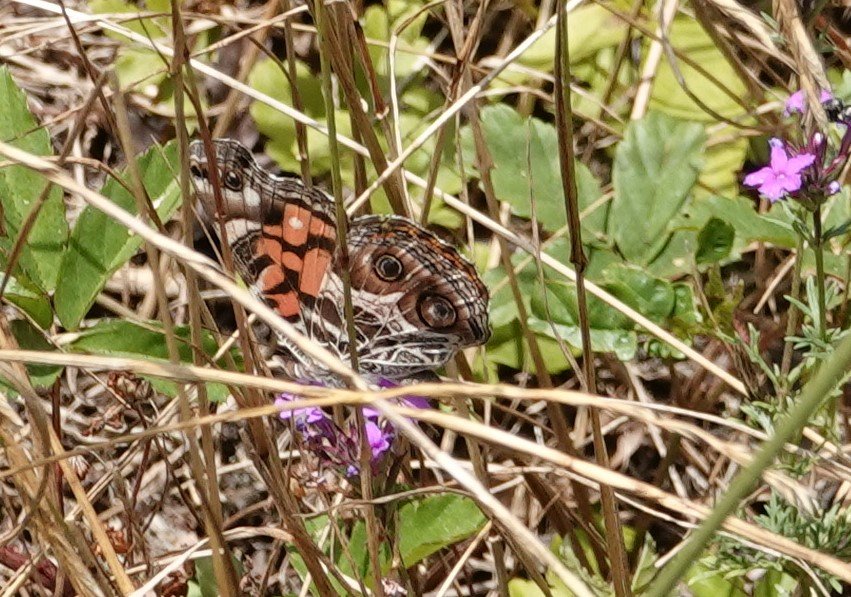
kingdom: Animalia
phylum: Arthropoda
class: Insecta
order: Lepidoptera
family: Nymphalidae
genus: Vanessa
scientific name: Vanessa virginiensis
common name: American Lady
